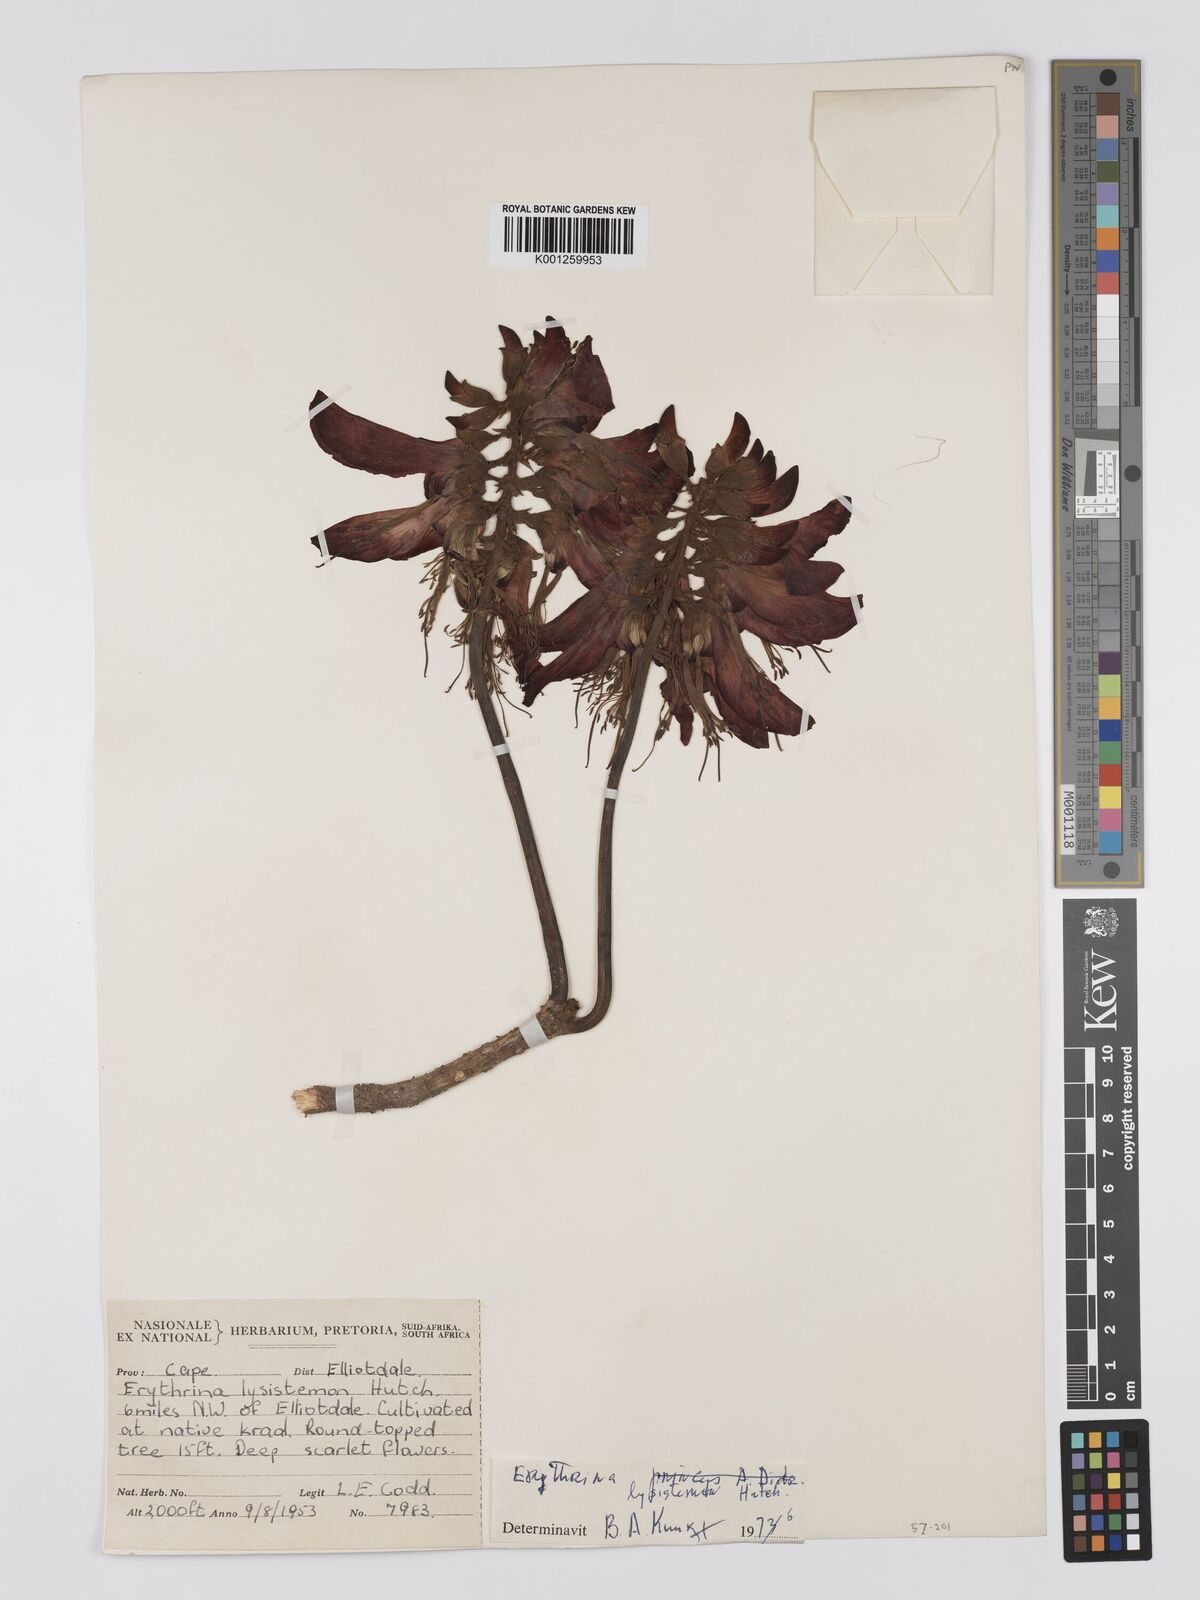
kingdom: Plantae
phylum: Tracheophyta
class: Magnoliopsida
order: Fabales
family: Fabaceae
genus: Erythrina
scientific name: Erythrina lysistemon
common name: Common coral tree
